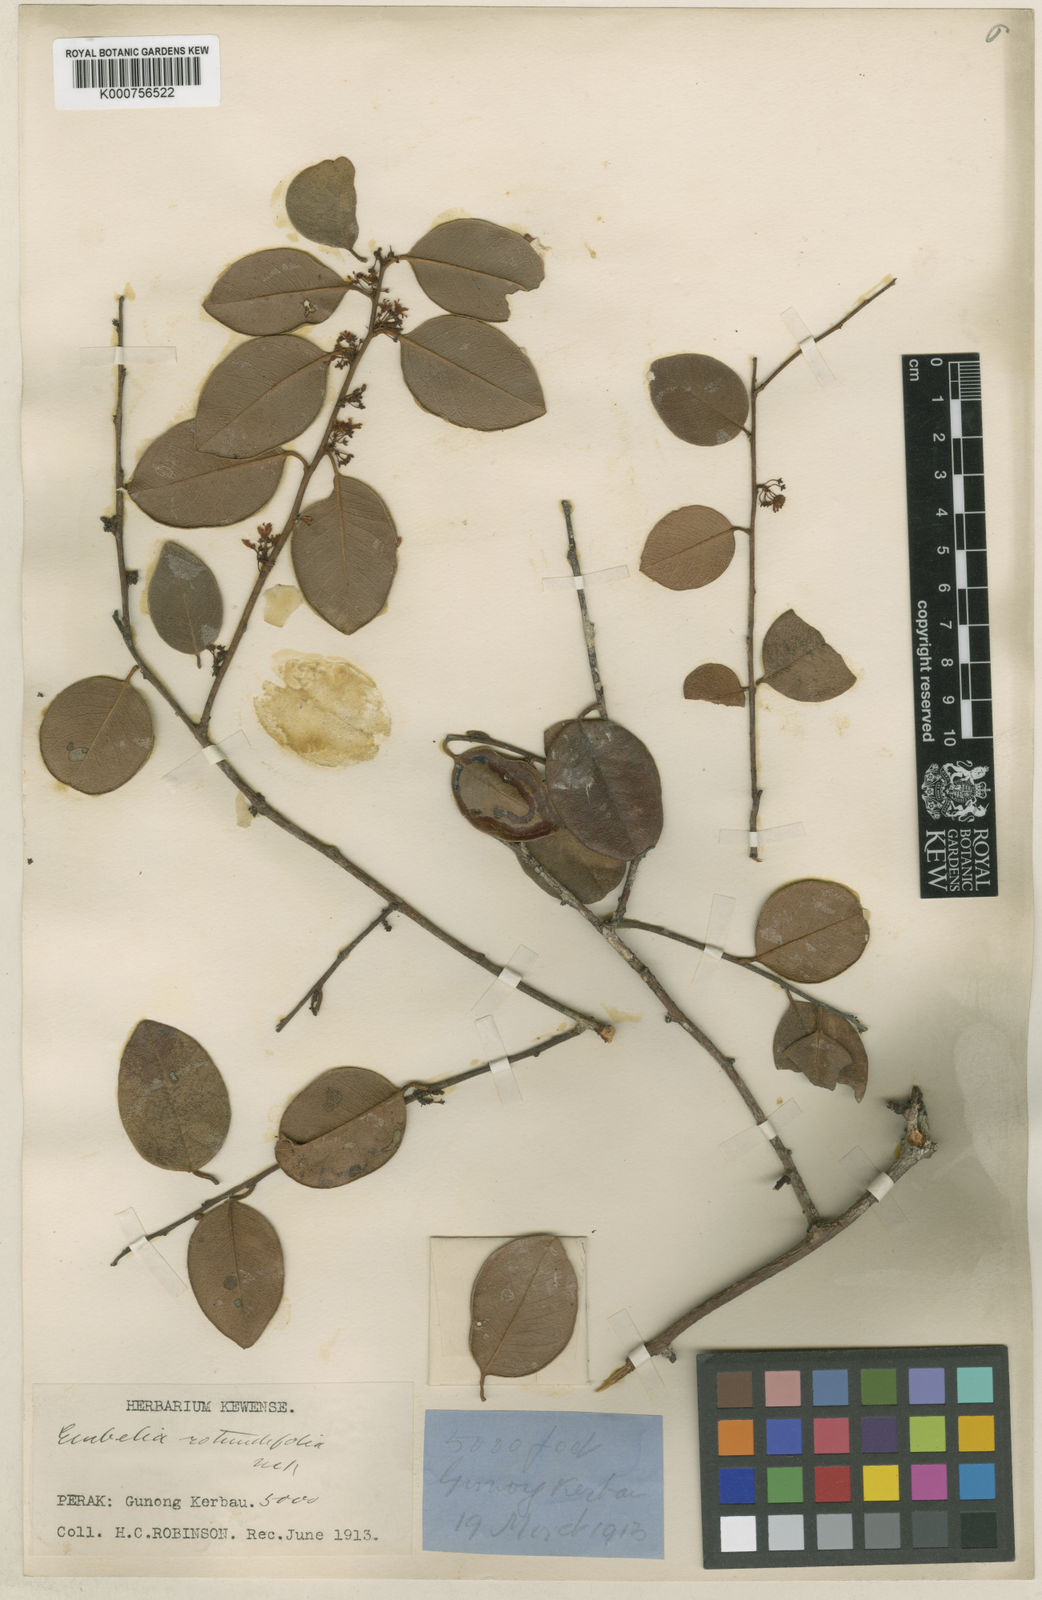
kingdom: Plantae
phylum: Tracheophyta
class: Magnoliopsida
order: Ericales
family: Primulaceae
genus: Embelia
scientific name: Embelia rotundifolia
